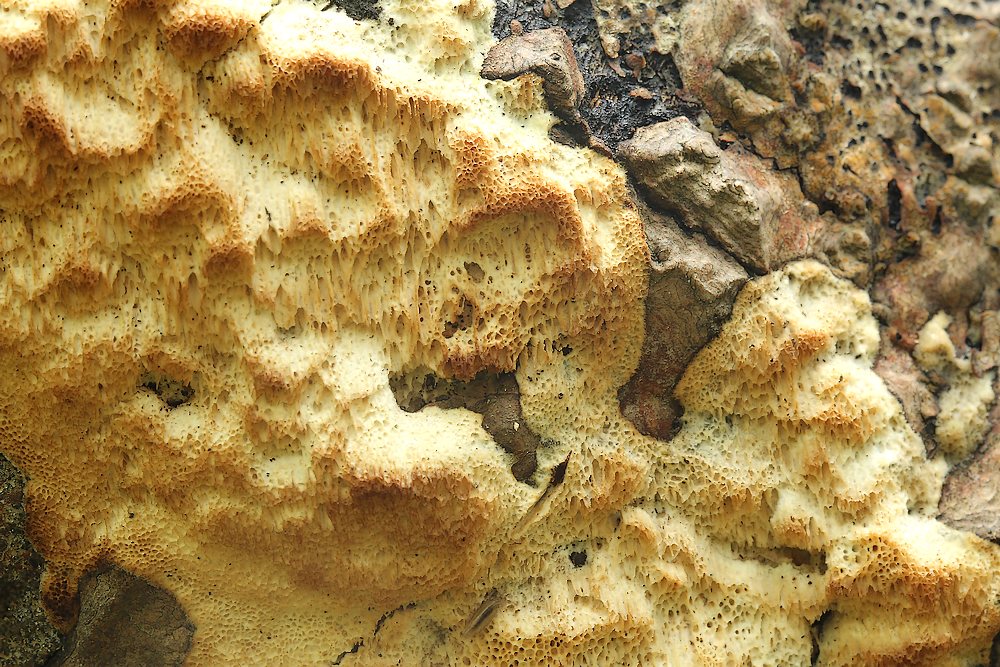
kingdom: Fungi
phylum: Basidiomycota
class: Agaricomycetes
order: Polyporales
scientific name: Polyporales
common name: poresvampordenen
